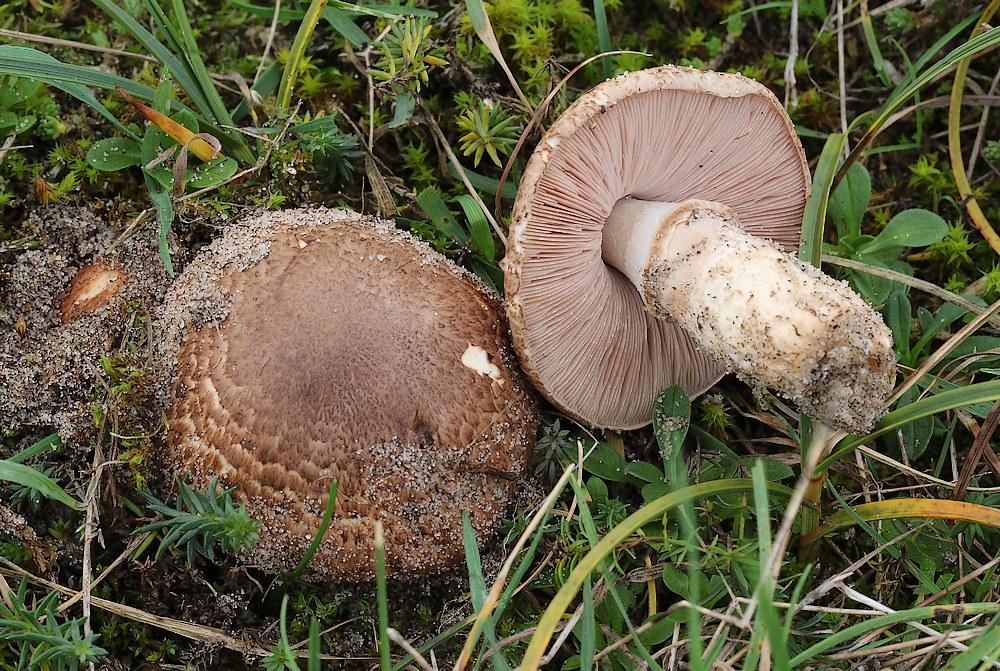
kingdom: Fungi
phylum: Basidiomycota
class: Agaricomycetes
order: Agaricales
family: Agaricaceae
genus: Agaricus
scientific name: Agaricus
